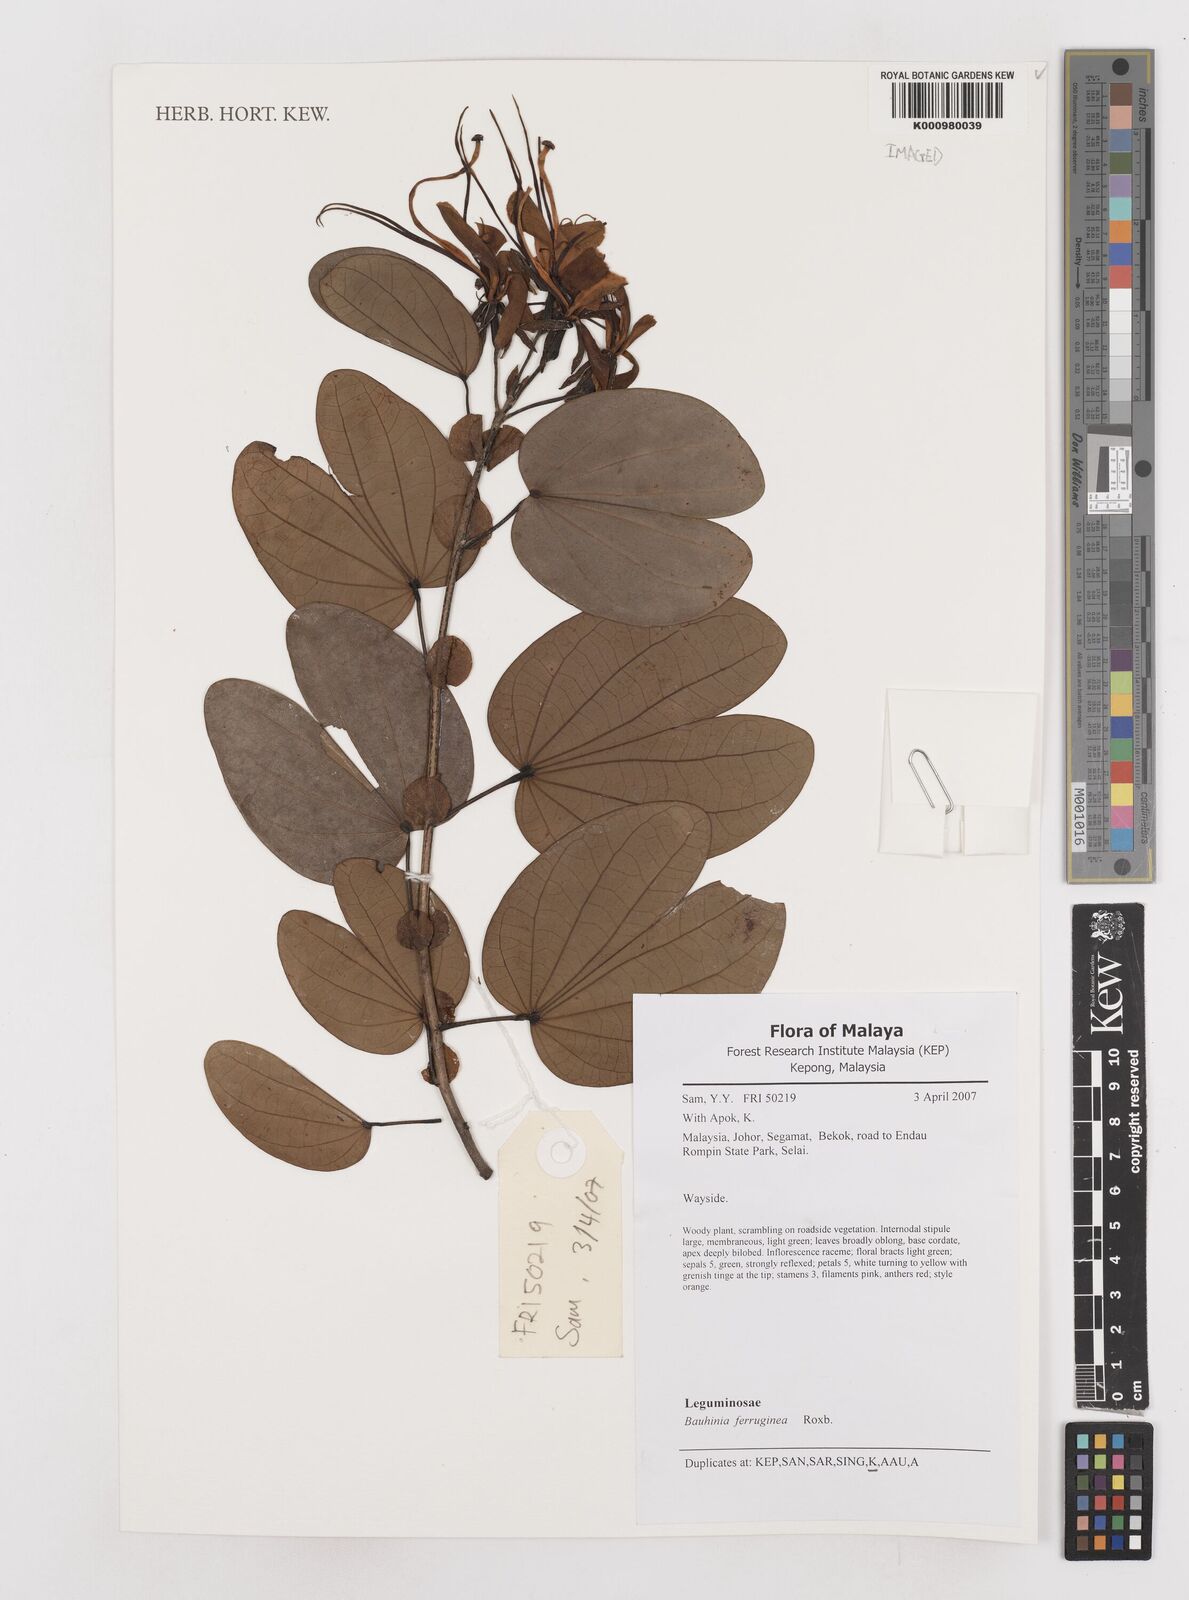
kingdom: Plantae
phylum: Tracheophyta
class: Magnoliopsida
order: Fabales
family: Fabaceae
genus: Phanera
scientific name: Phanera ferruginea
